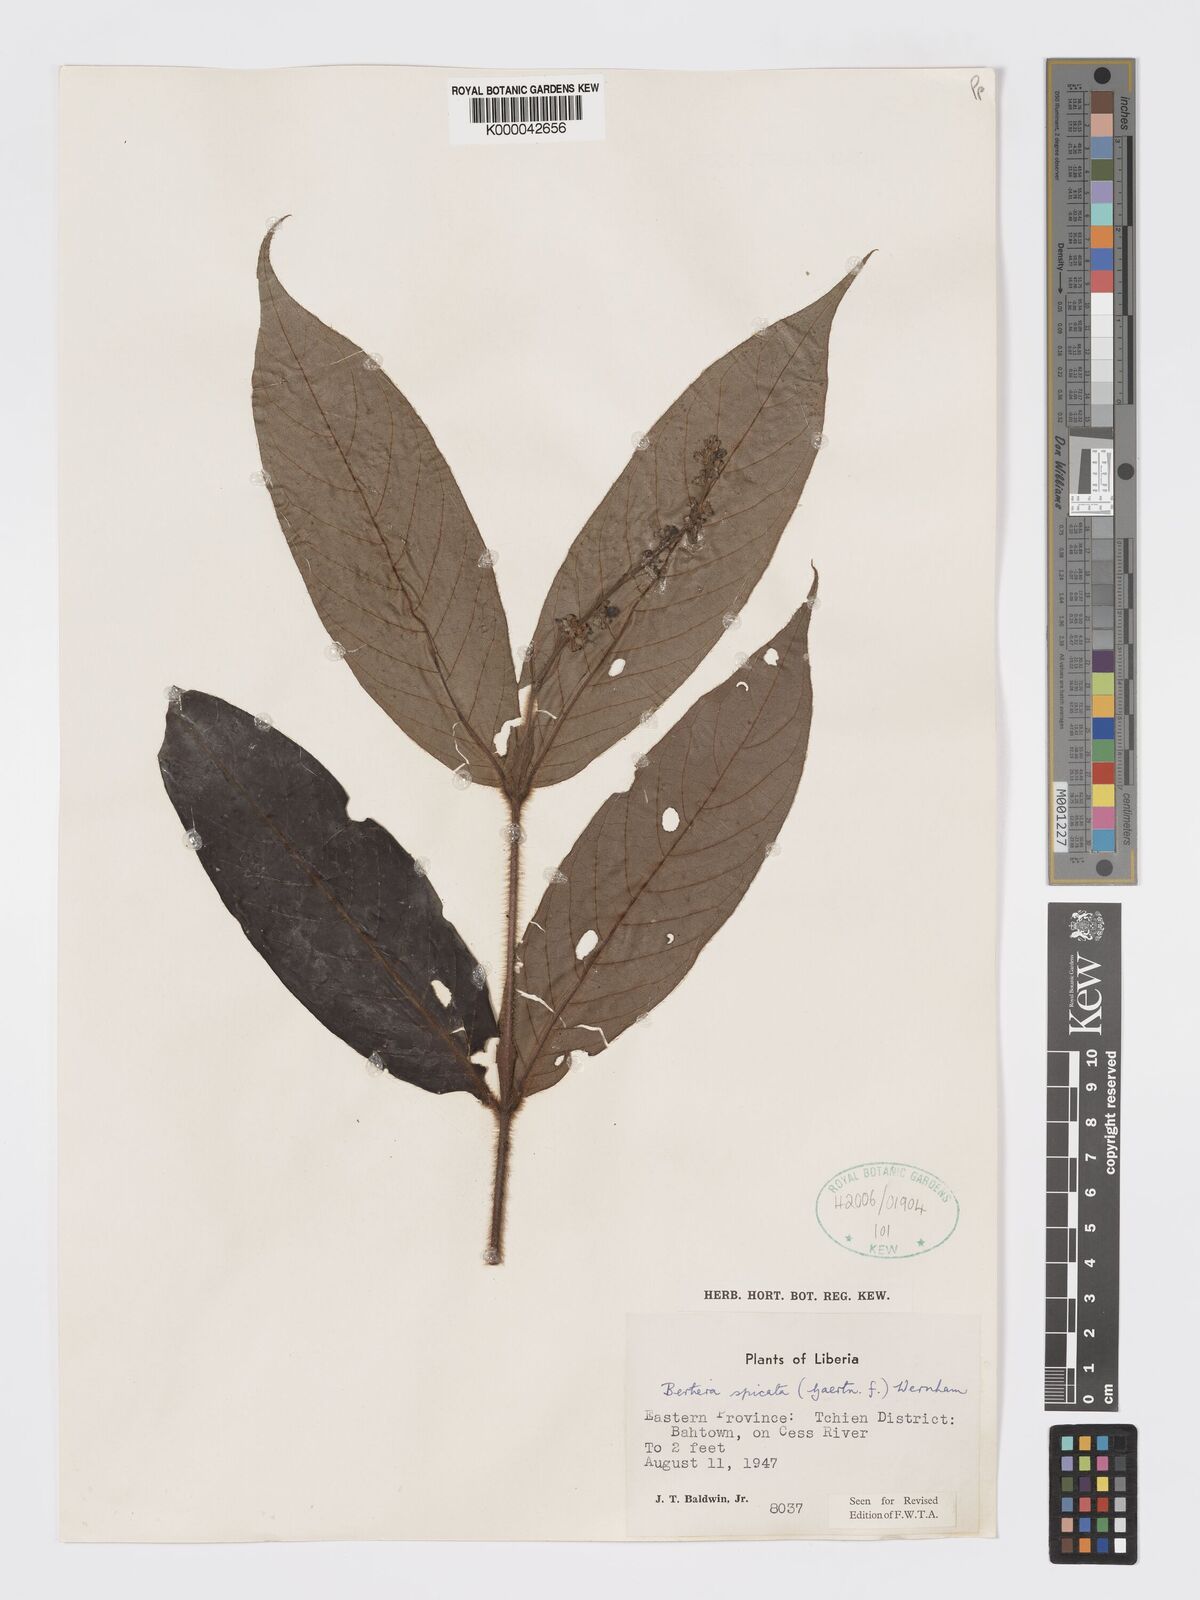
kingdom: Plantae
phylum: Tracheophyta
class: Magnoliopsida
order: Gentianales
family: Rubiaceae
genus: Bertiera
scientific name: Bertiera
